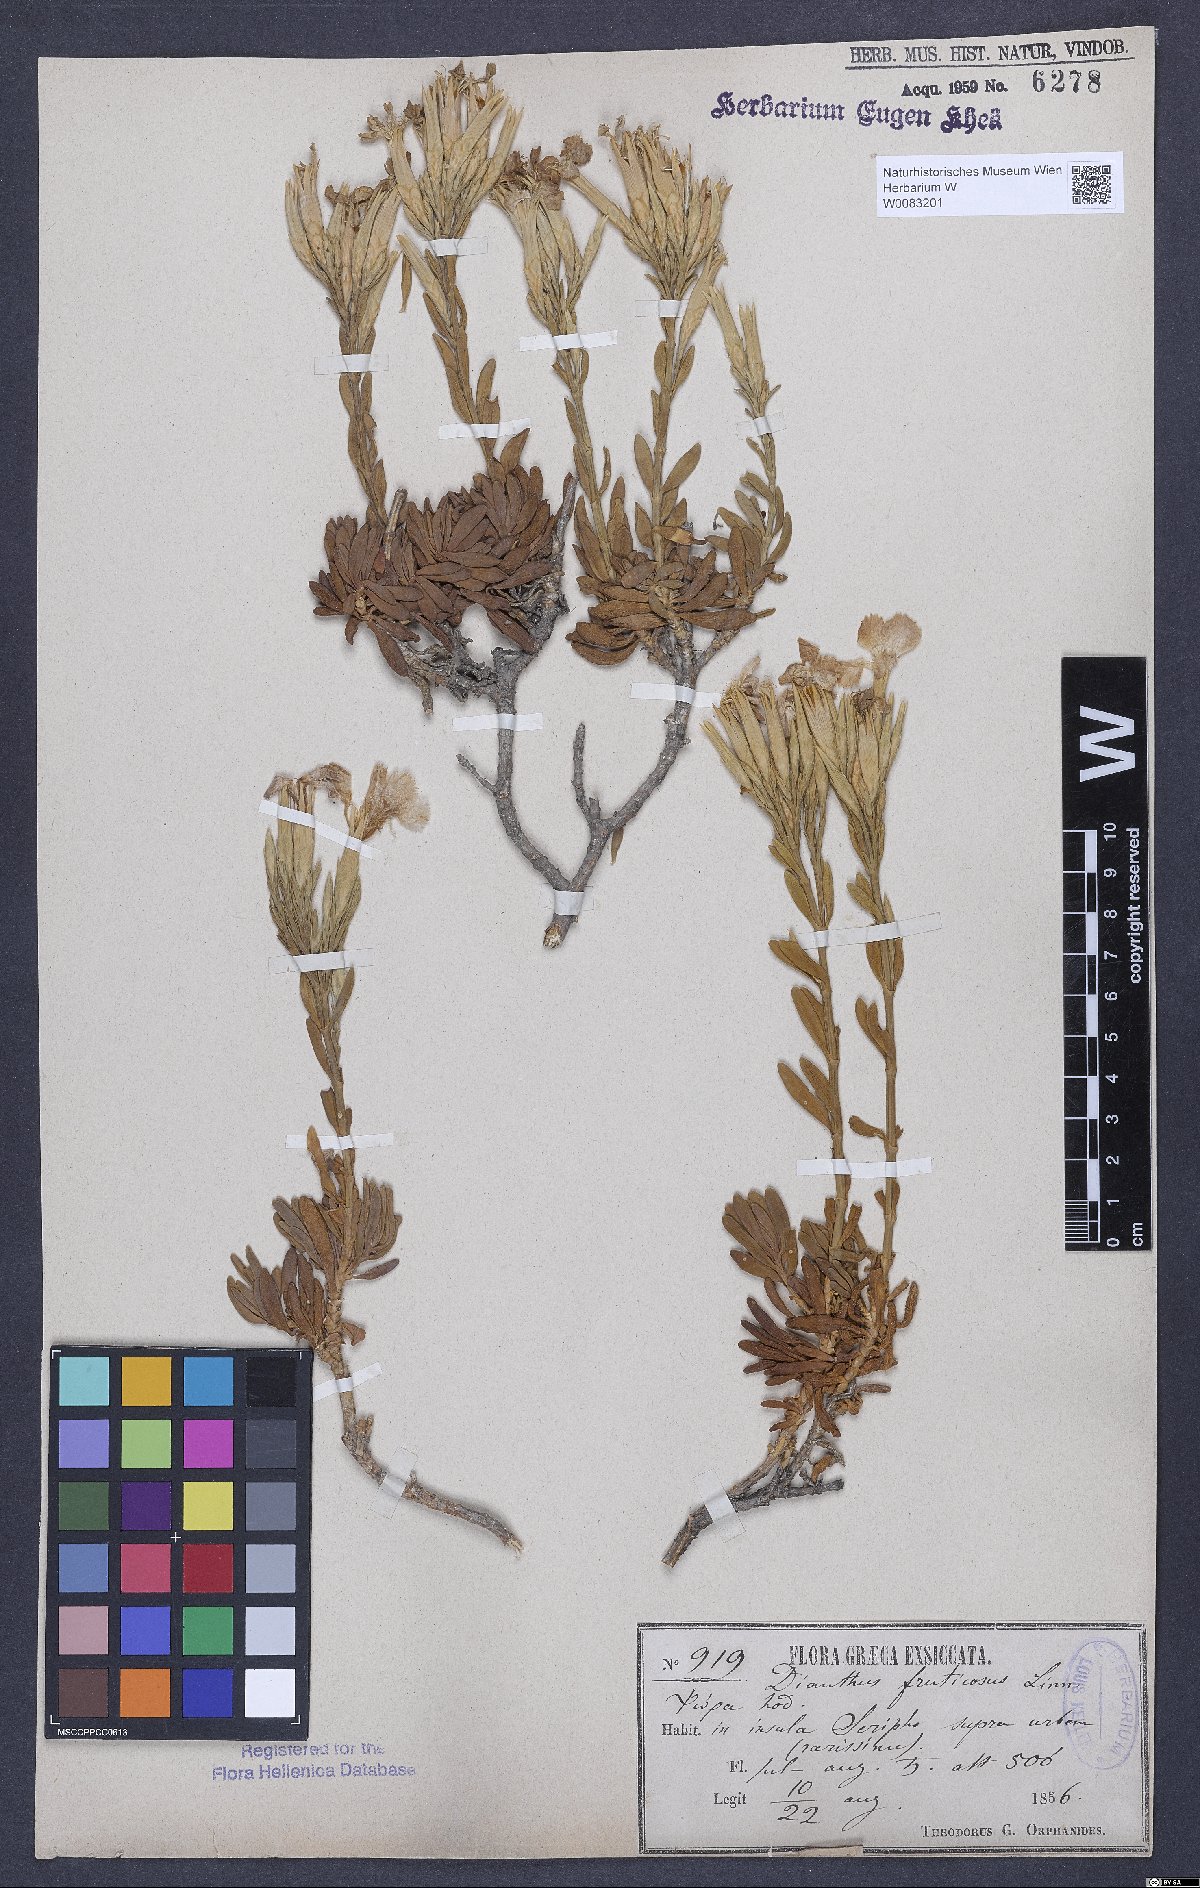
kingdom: Plantae
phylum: Tracheophyta
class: Magnoliopsida
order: Caryophyllales
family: Caryophyllaceae
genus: Dianthus
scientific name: Dianthus fruticosus
